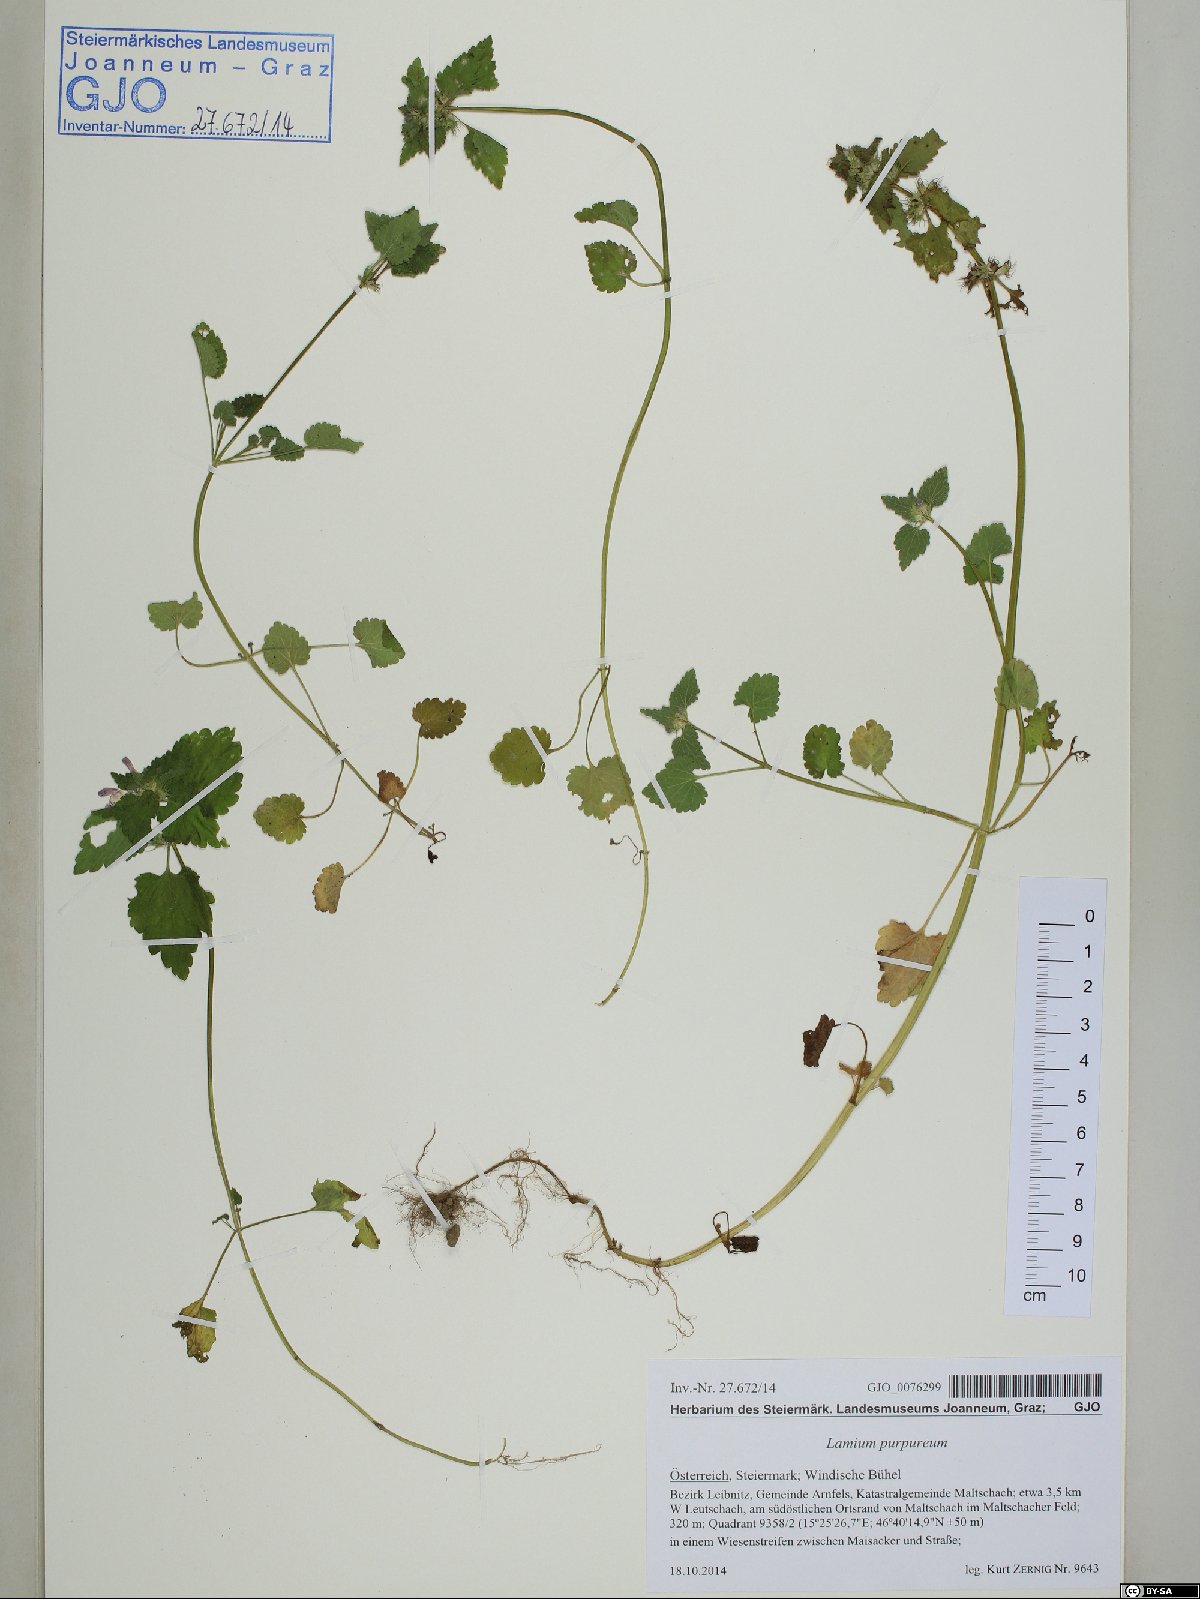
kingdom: Plantae
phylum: Tracheophyta
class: Magnoliopsida
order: Lamiales
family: Lamiaceae
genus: Lamium
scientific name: Lamium purpureum
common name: Red dead-nettle
